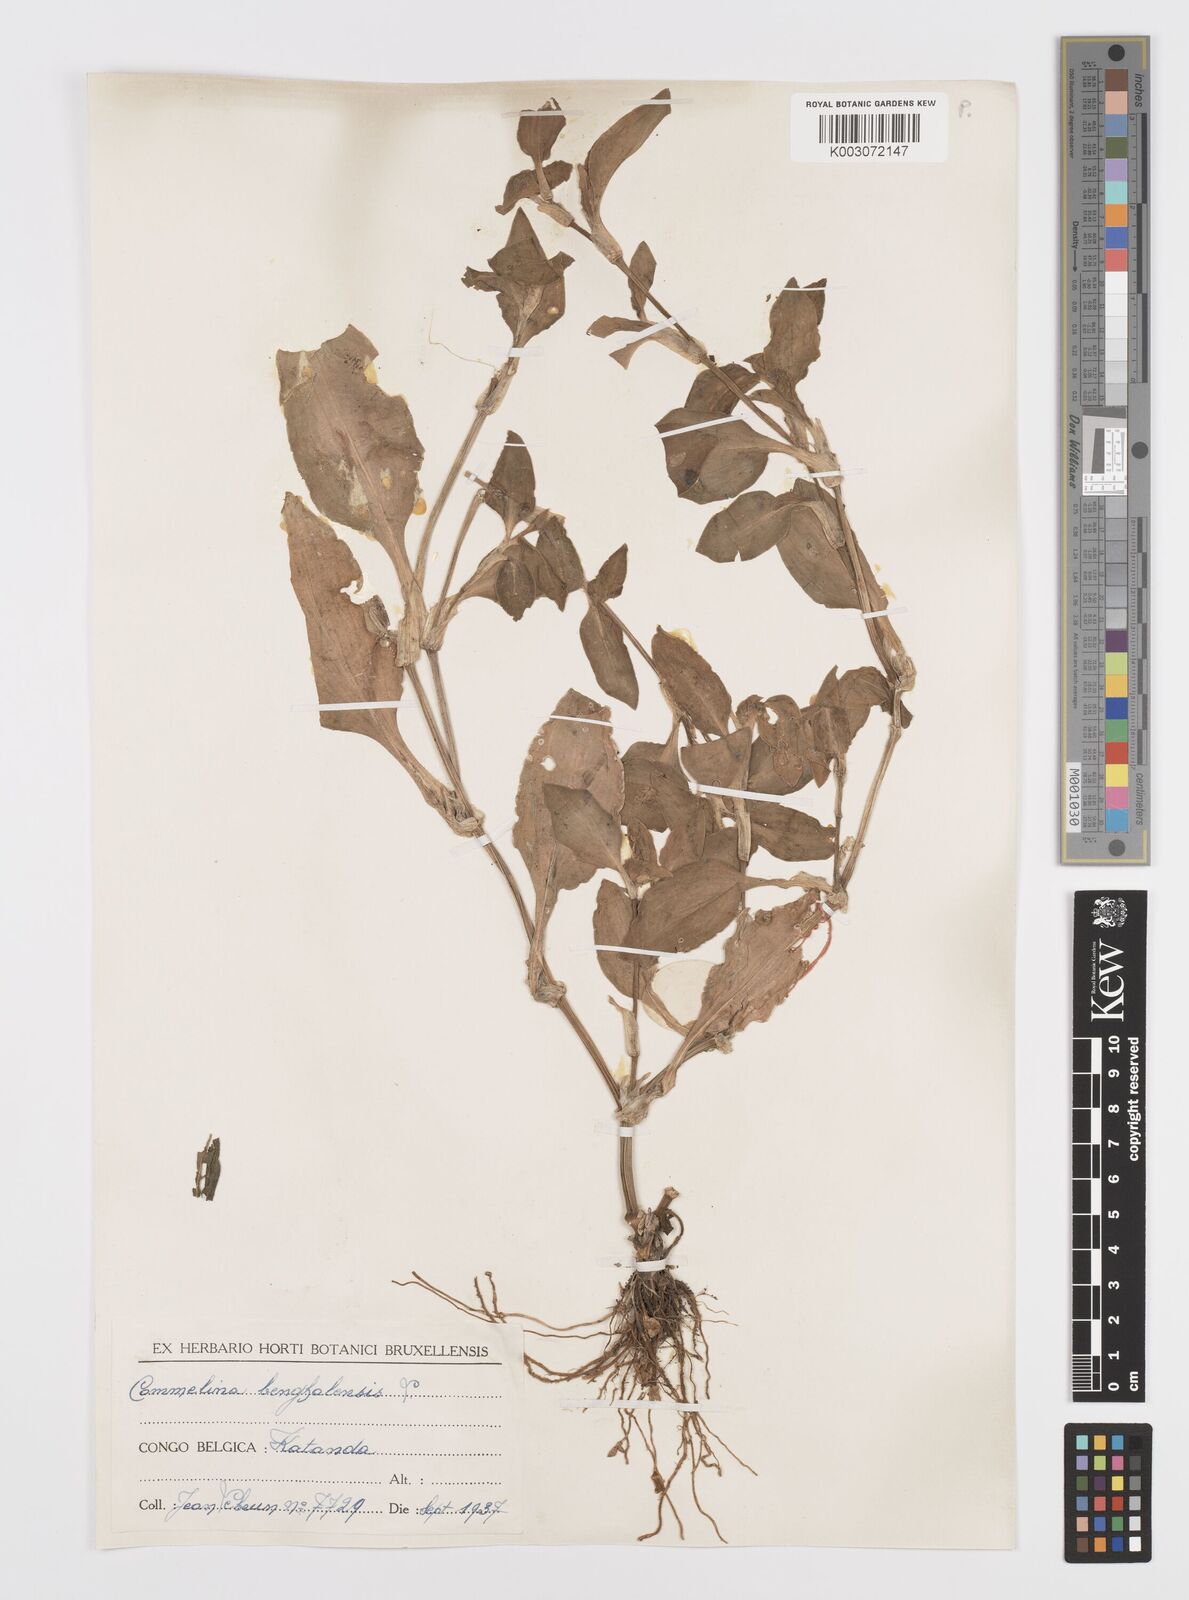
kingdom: Plantae
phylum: Tracheophyta
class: Liliopsida
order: Commelinales
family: Commelinaceae
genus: Commelina
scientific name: Commelina benghalensis
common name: Jio
